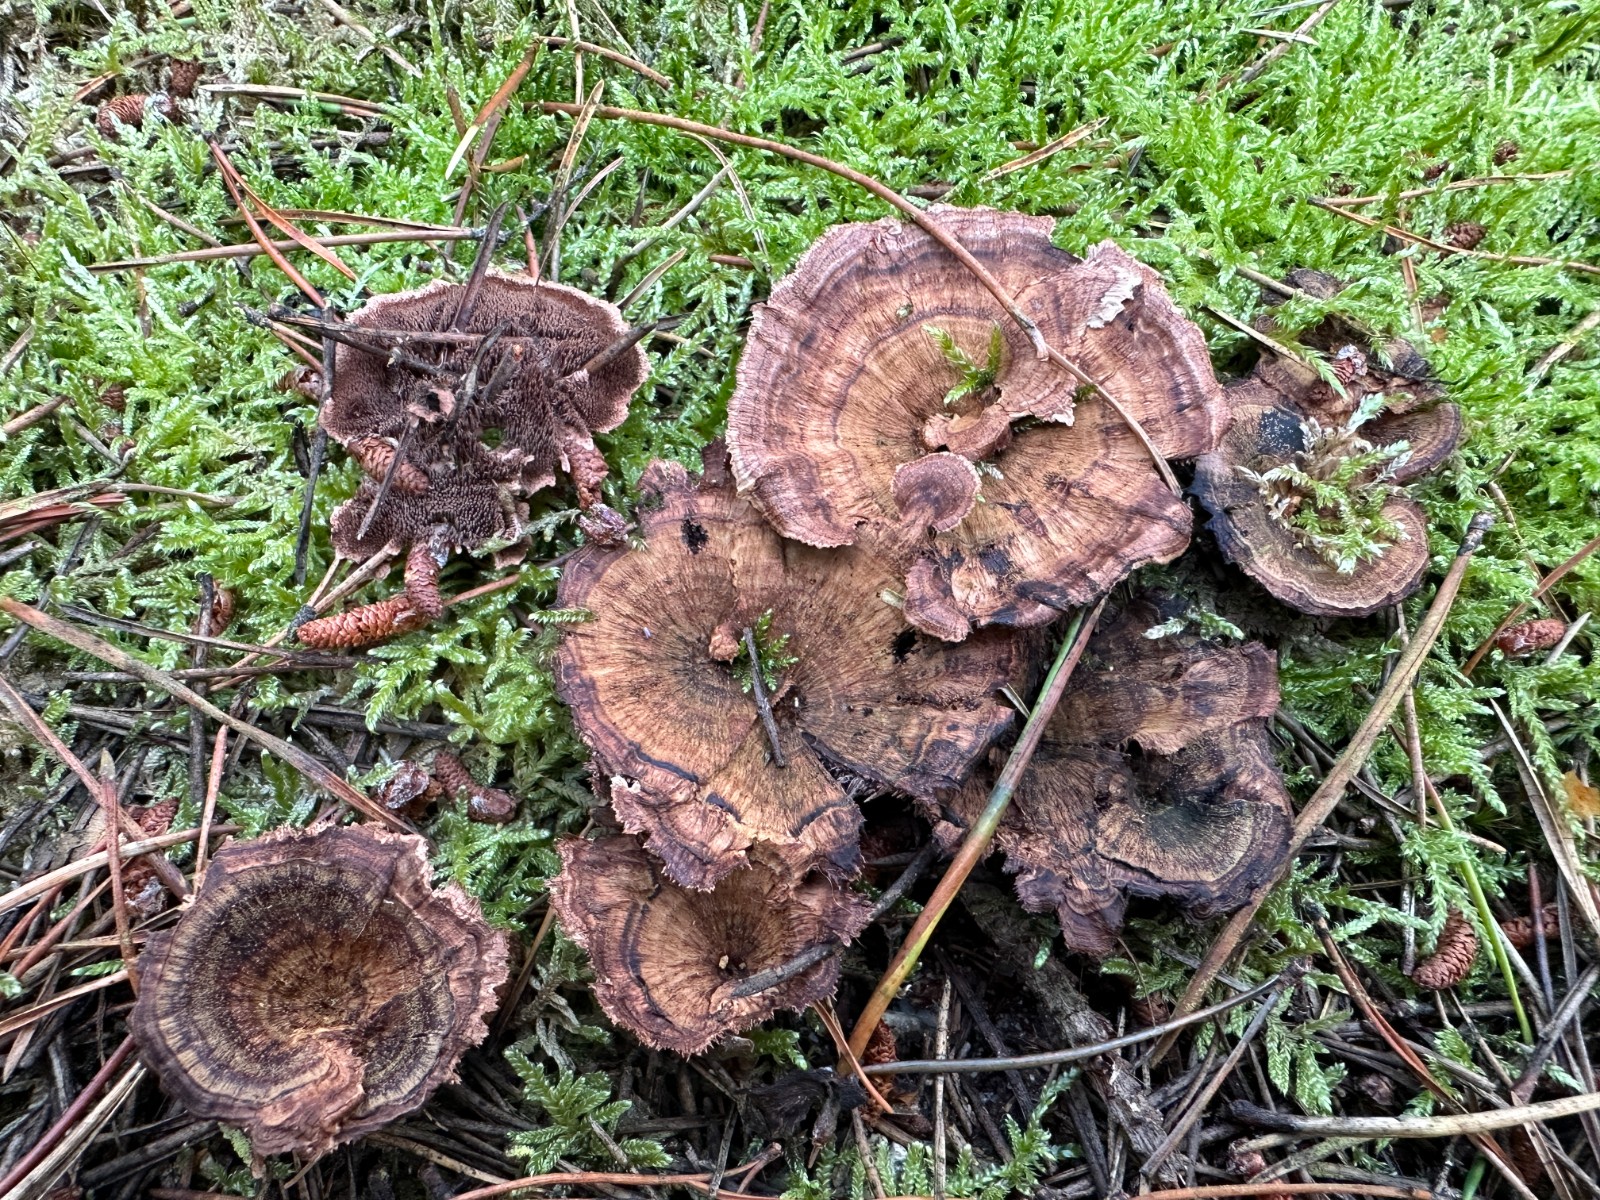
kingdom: Fungi
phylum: Basidiomycota
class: Agaricomycetes
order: Thelephorales
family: Bankeraceae
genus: Hydnellum
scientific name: Hydnellum concrescens
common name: bæltet korkpigsvamp
